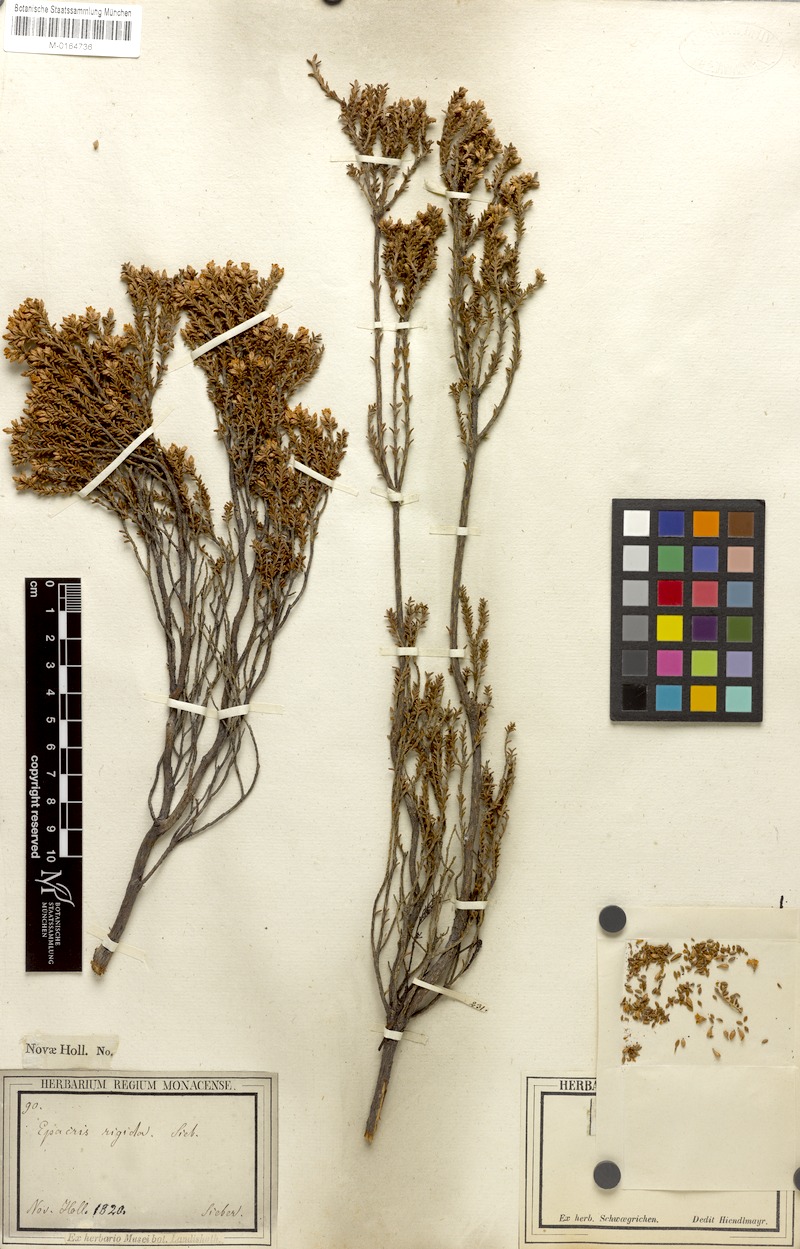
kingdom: Plantae
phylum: Tracheophyta
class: Magnoliopsida
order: Ericales
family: Ericaceae
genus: Epacris
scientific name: Epacris rigida
